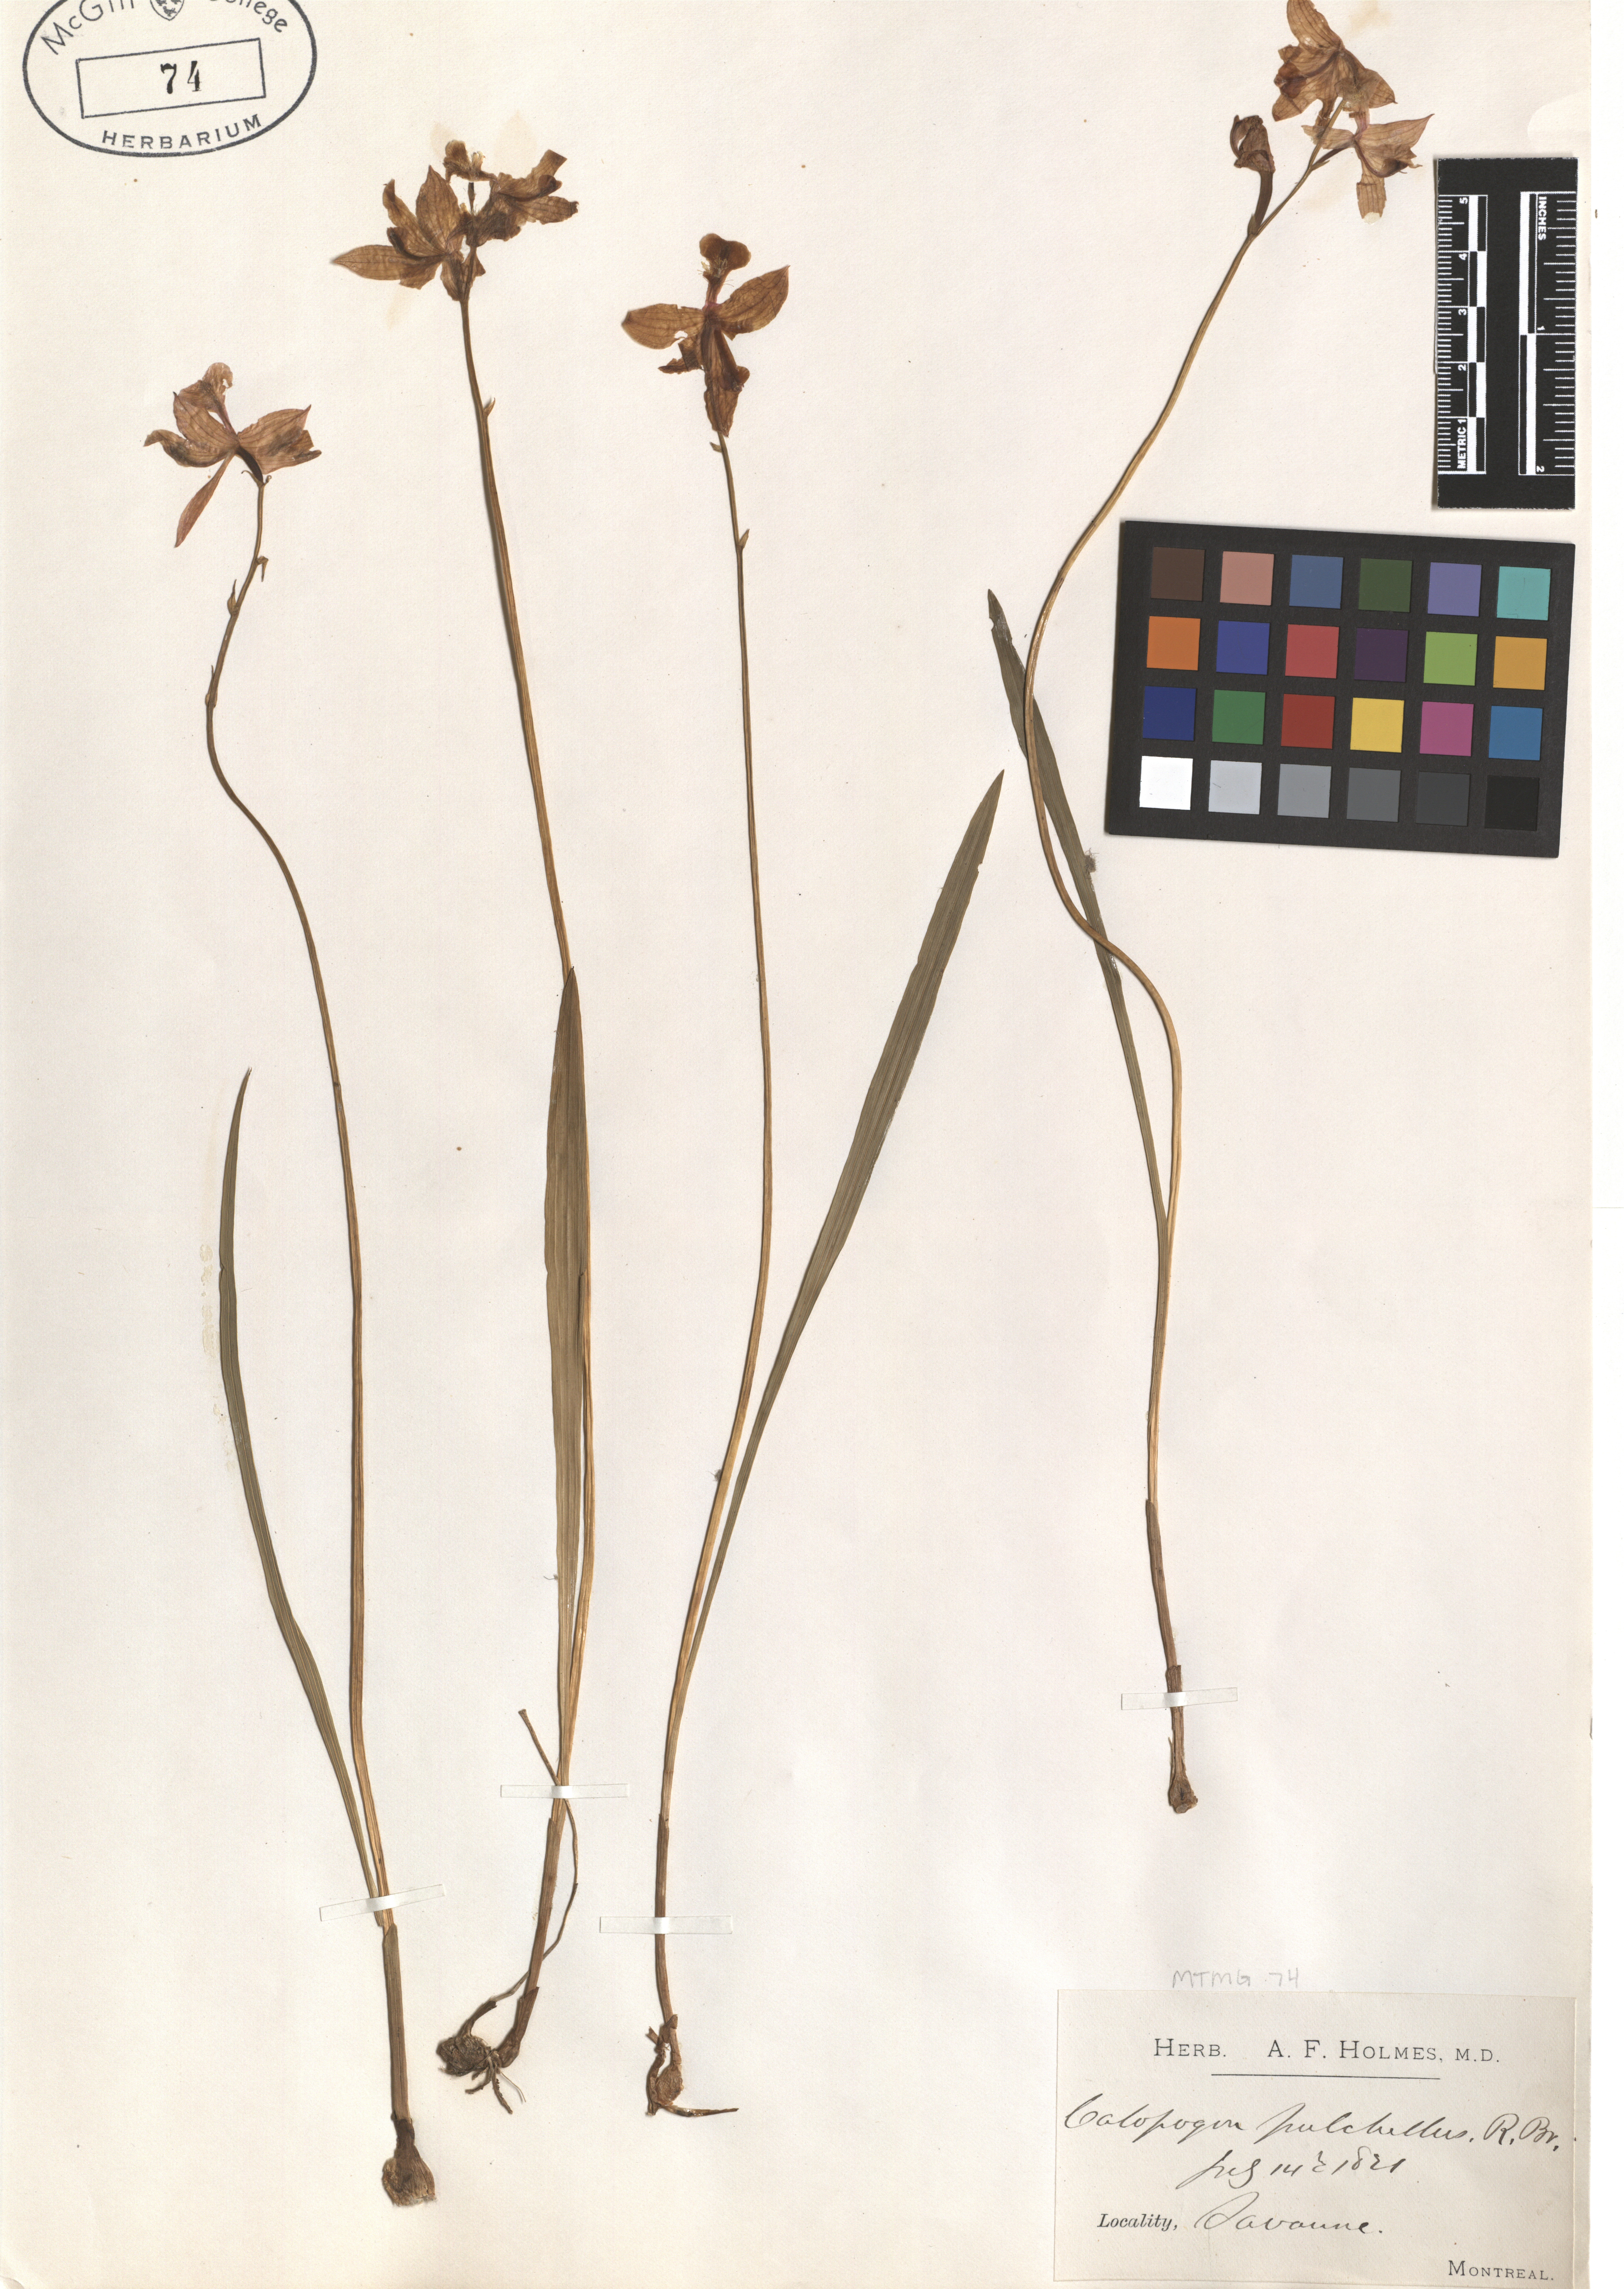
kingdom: Plantae
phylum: Tracheophyta
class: Liliopsida
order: Asparagales
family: Orchidaceae
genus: Calopogon
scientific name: Calopogon tuberosus
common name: Grass-pink
